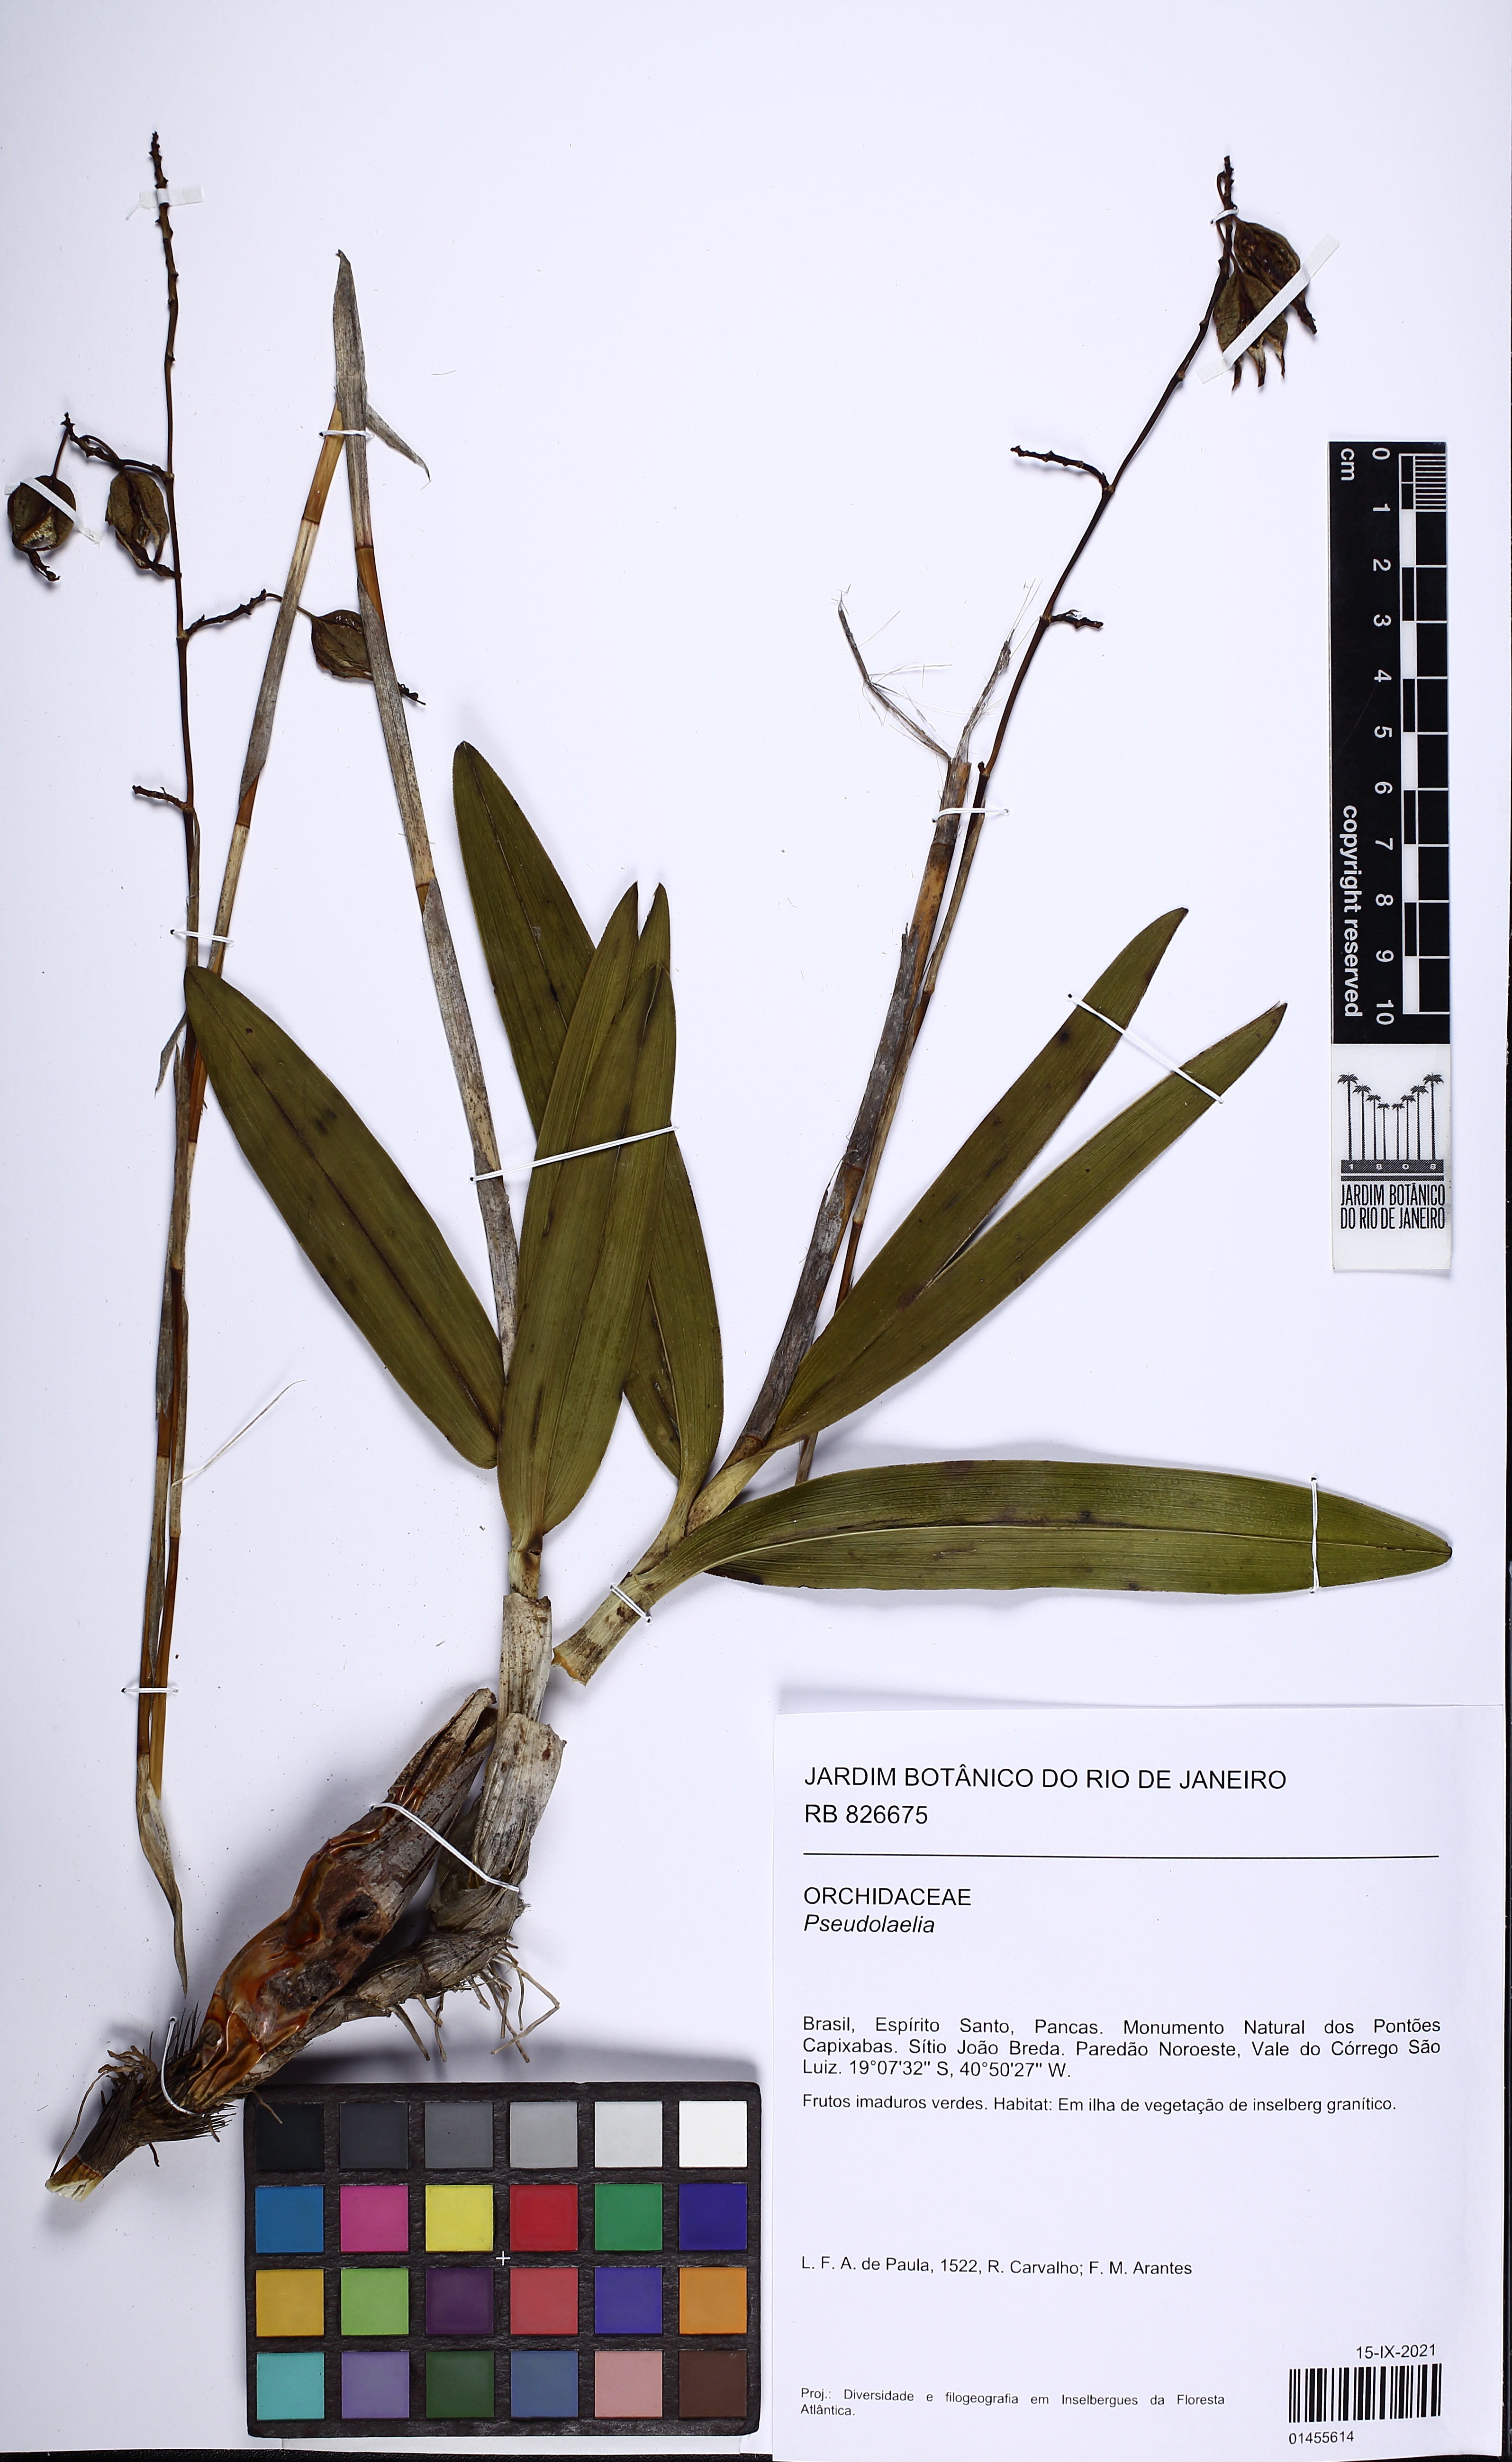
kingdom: Plantae
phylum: Tracheophyta
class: Liliopsida
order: Asparagales
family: Orchidaceae
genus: Pseudolaelia
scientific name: Pseudolaelia
